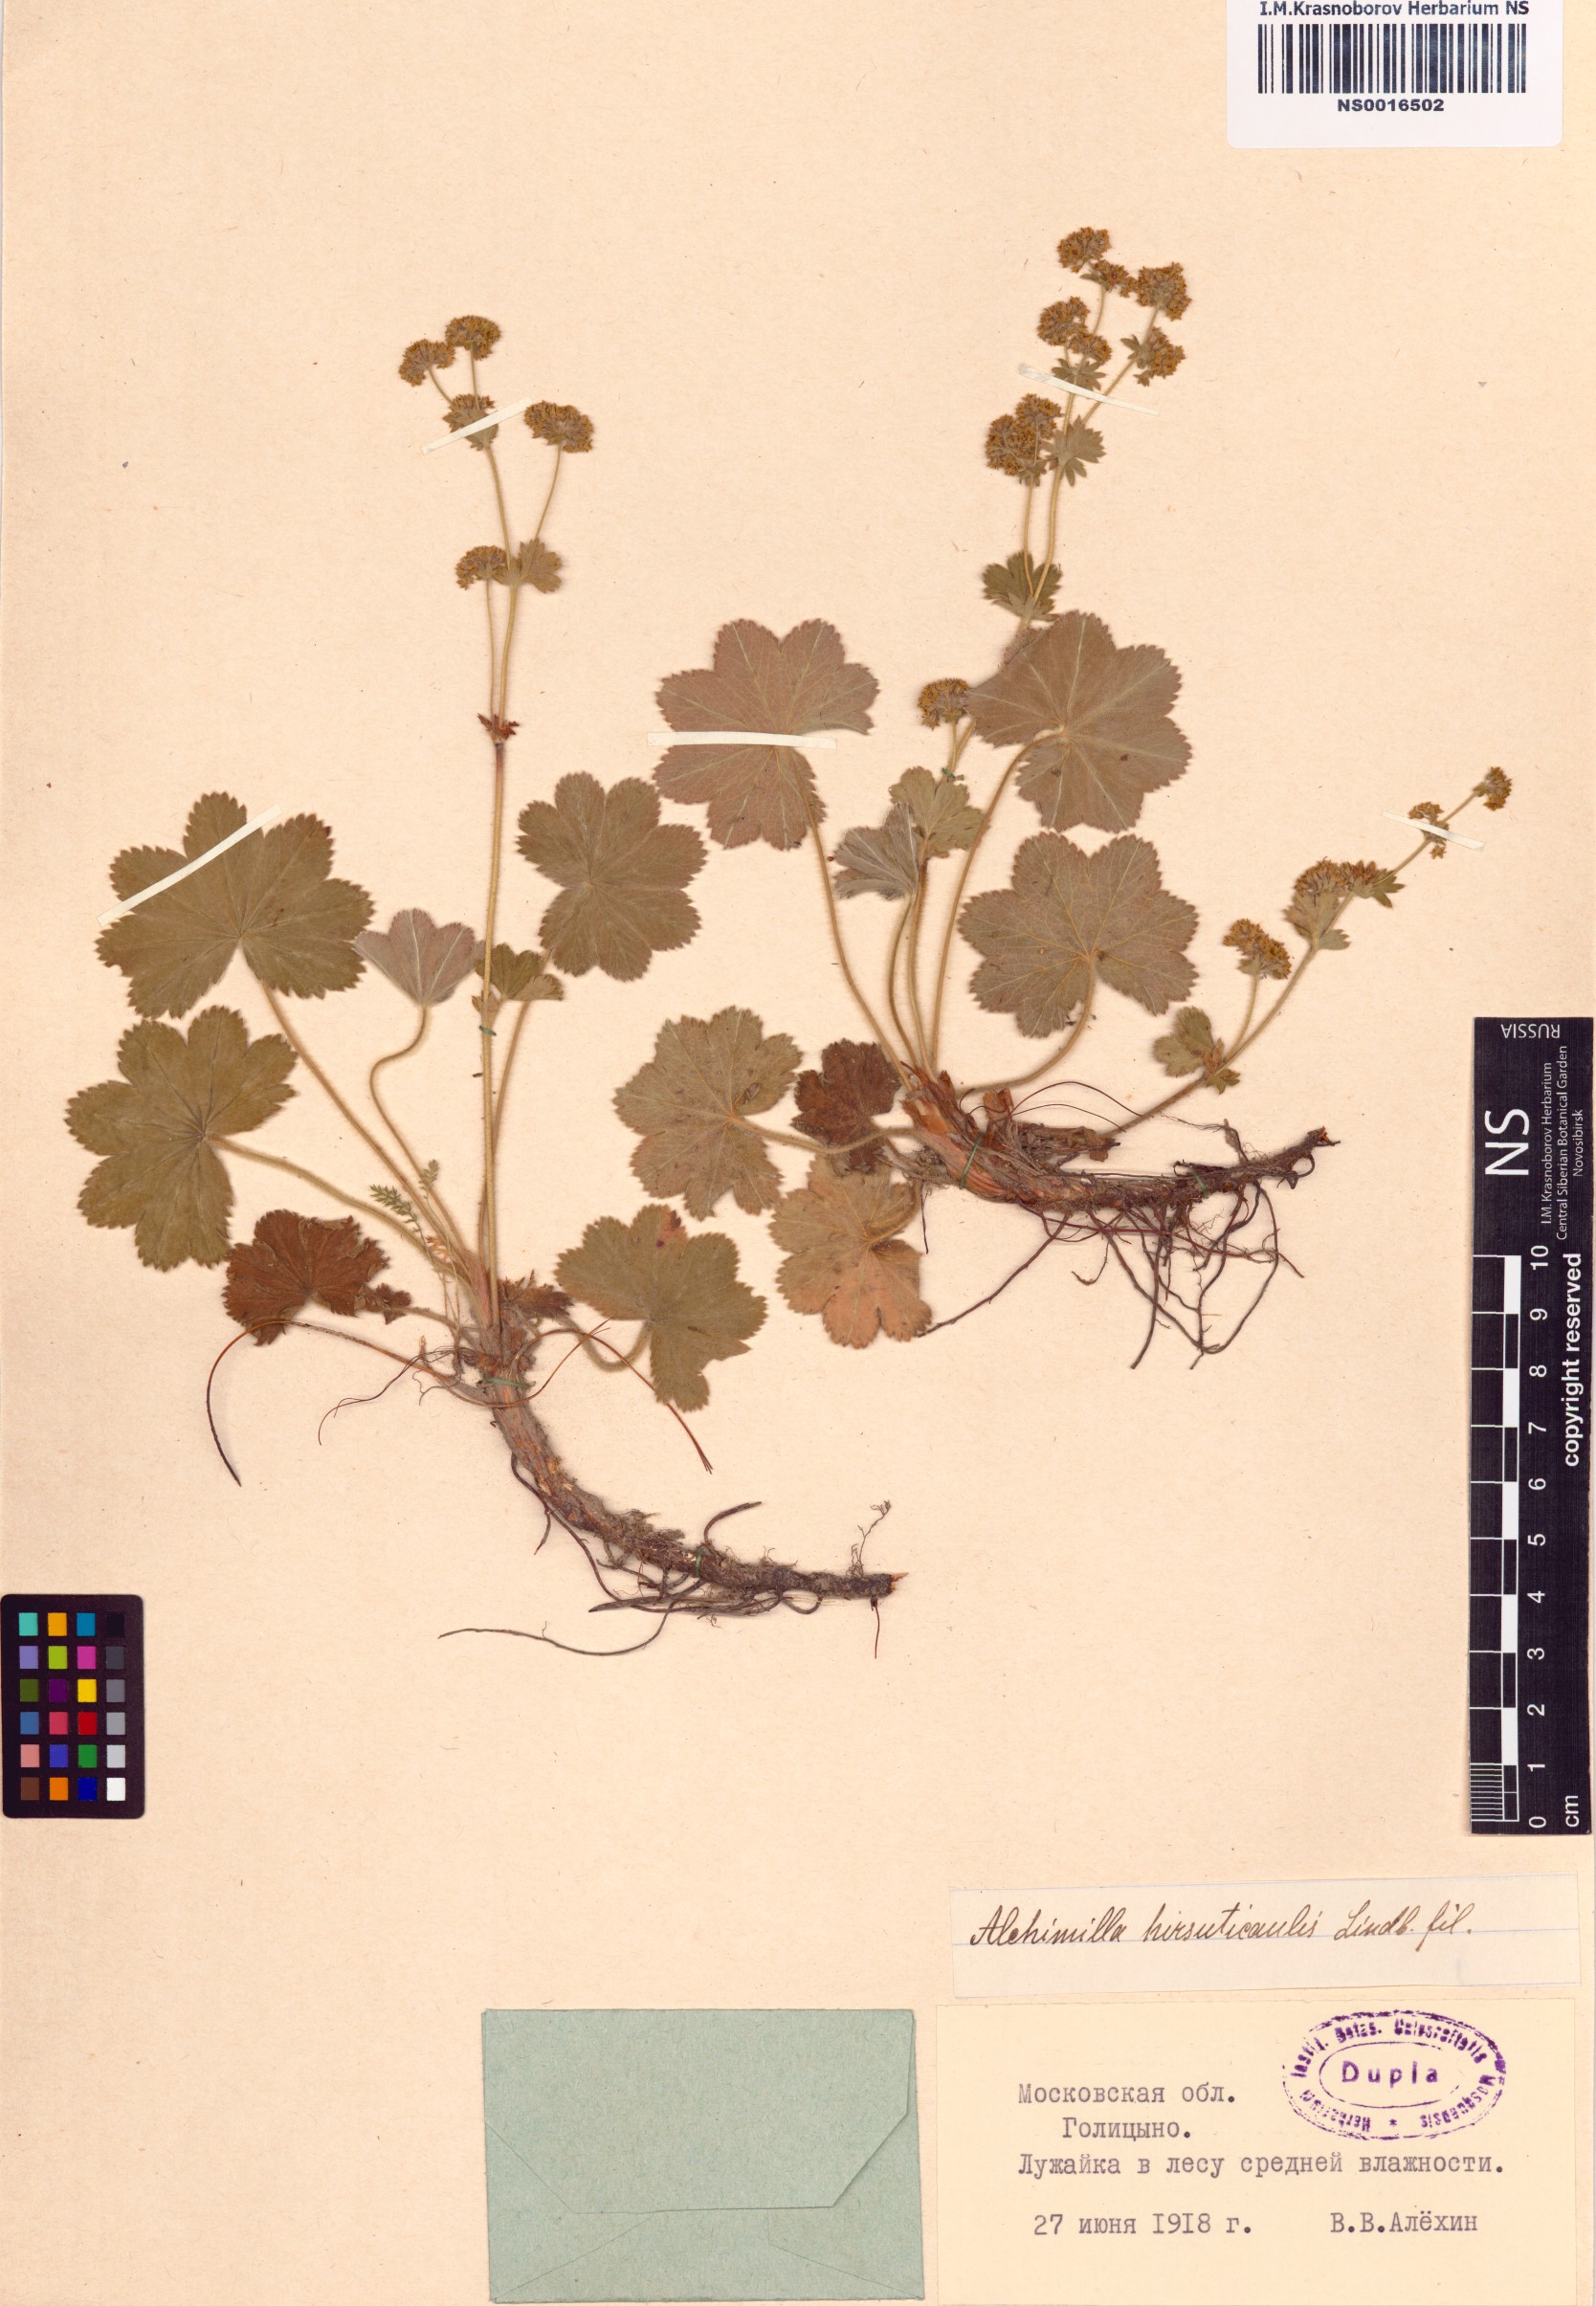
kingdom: Plantae
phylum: Tracheophyta
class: Magnoliopsida
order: Rosales
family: Rosaceae
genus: Alchemilla
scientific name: Alchemilla hirsuticaulis
